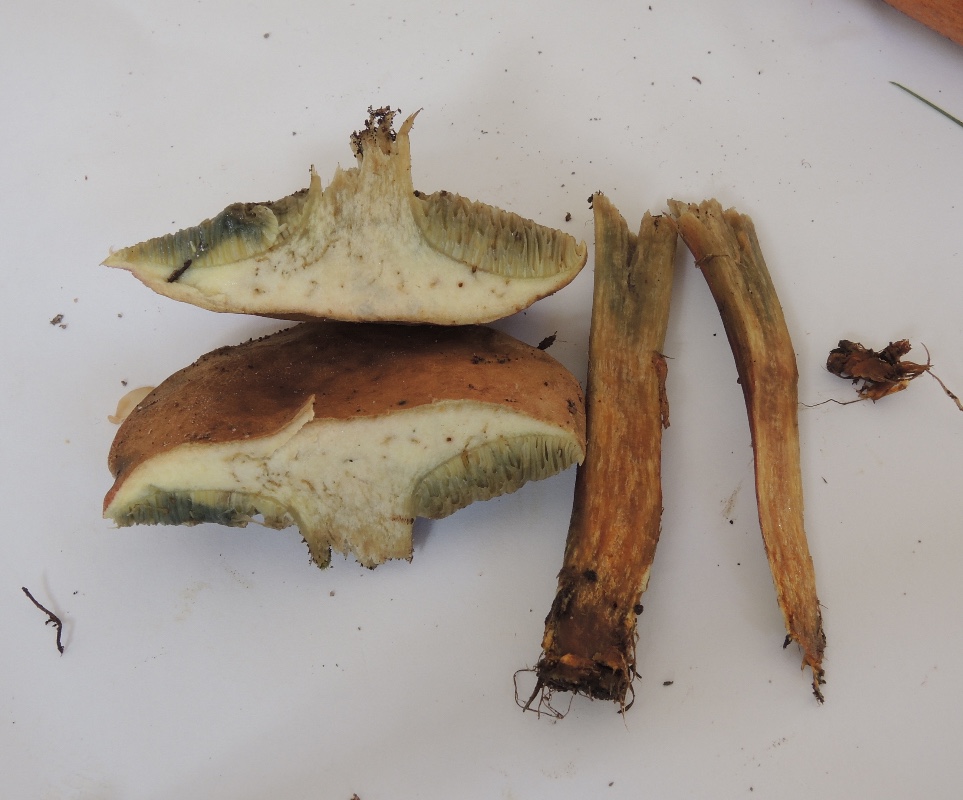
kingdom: Fungi
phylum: Basidiomycota
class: Agaricomycetes
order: Boletales
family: Boletaceae
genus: Hortiboletus
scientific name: Hortiboletus rubellus
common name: blodrød rørhat
